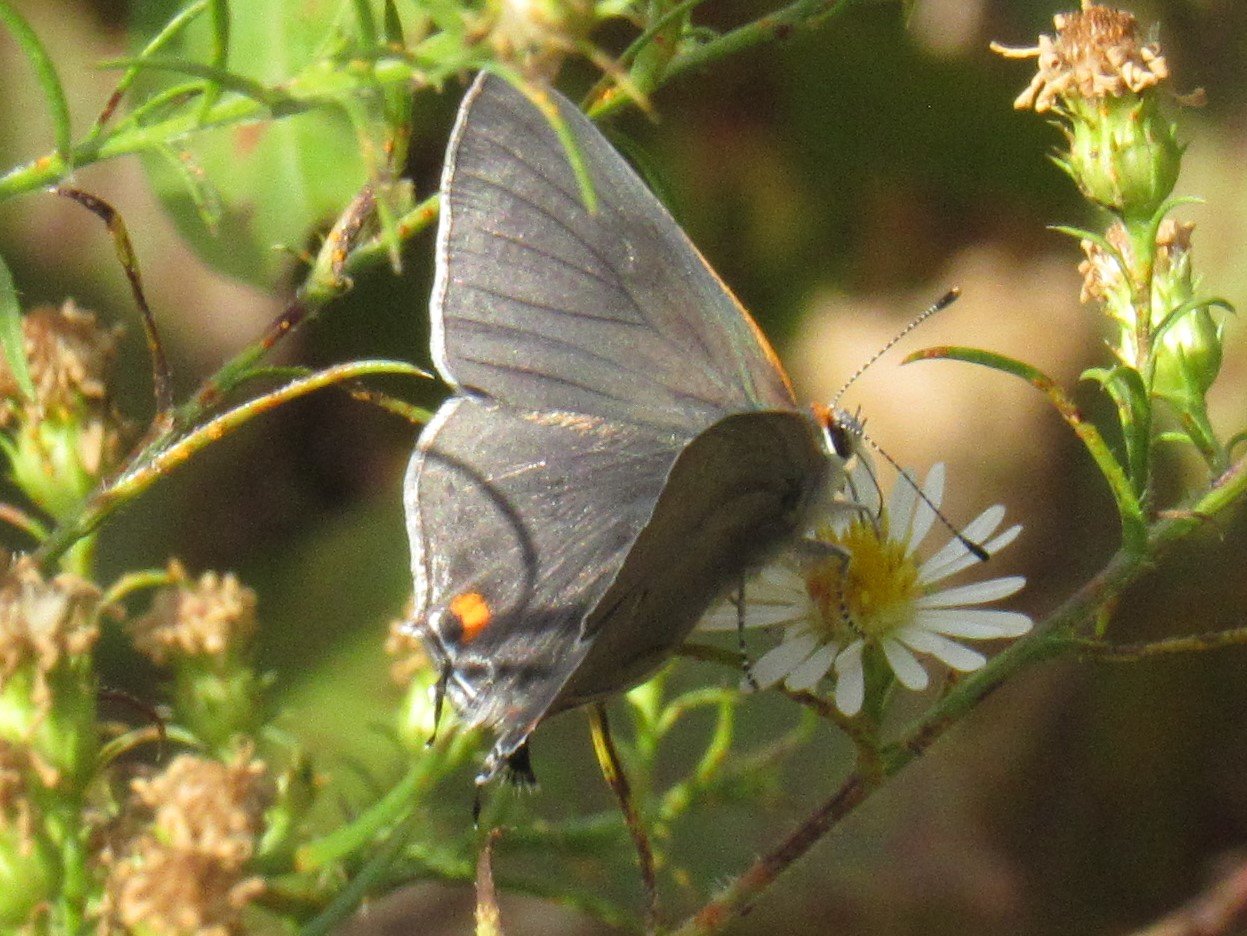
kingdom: Animalia
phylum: Arthropoda
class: Insecta
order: Lepidoptera
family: Lycaenidae
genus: Strymon
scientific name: Strymon melinus
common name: Gray Hairstreak
